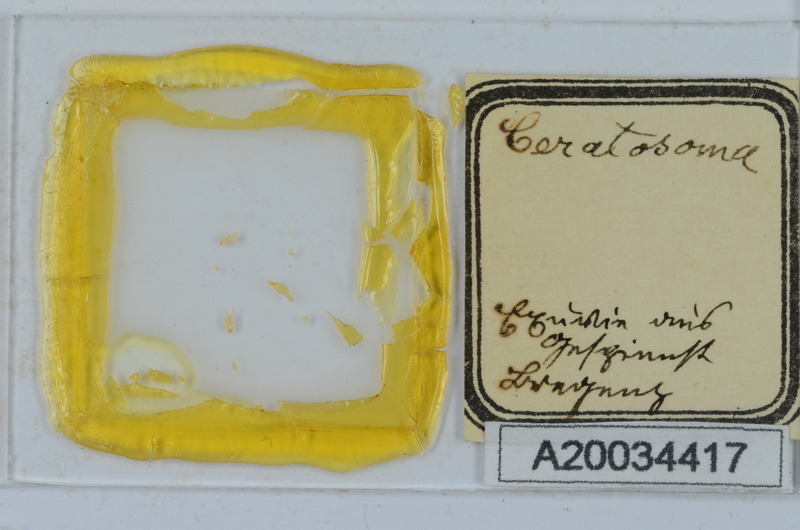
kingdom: Animalia
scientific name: Animalia
